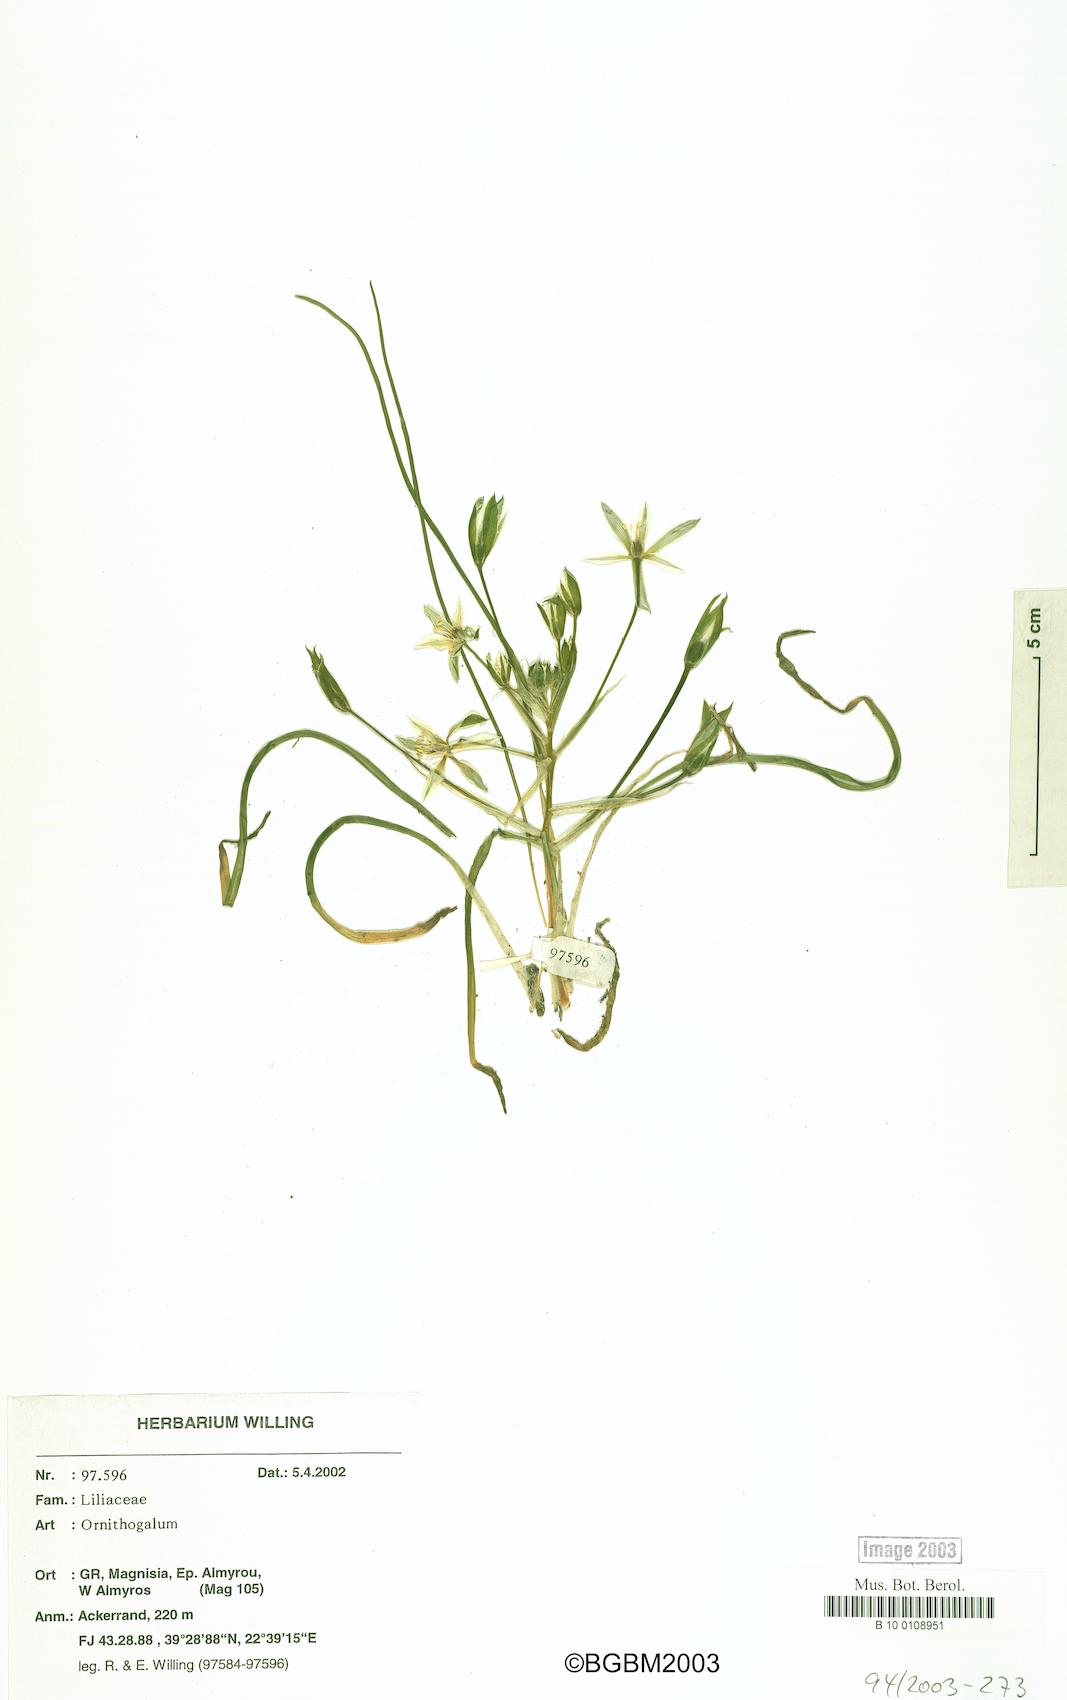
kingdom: Plantae
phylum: Tracheophyta
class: Liliopsida
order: Asparagales
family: Asparagaceae
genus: Ornithogalum
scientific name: Ornithogalum
